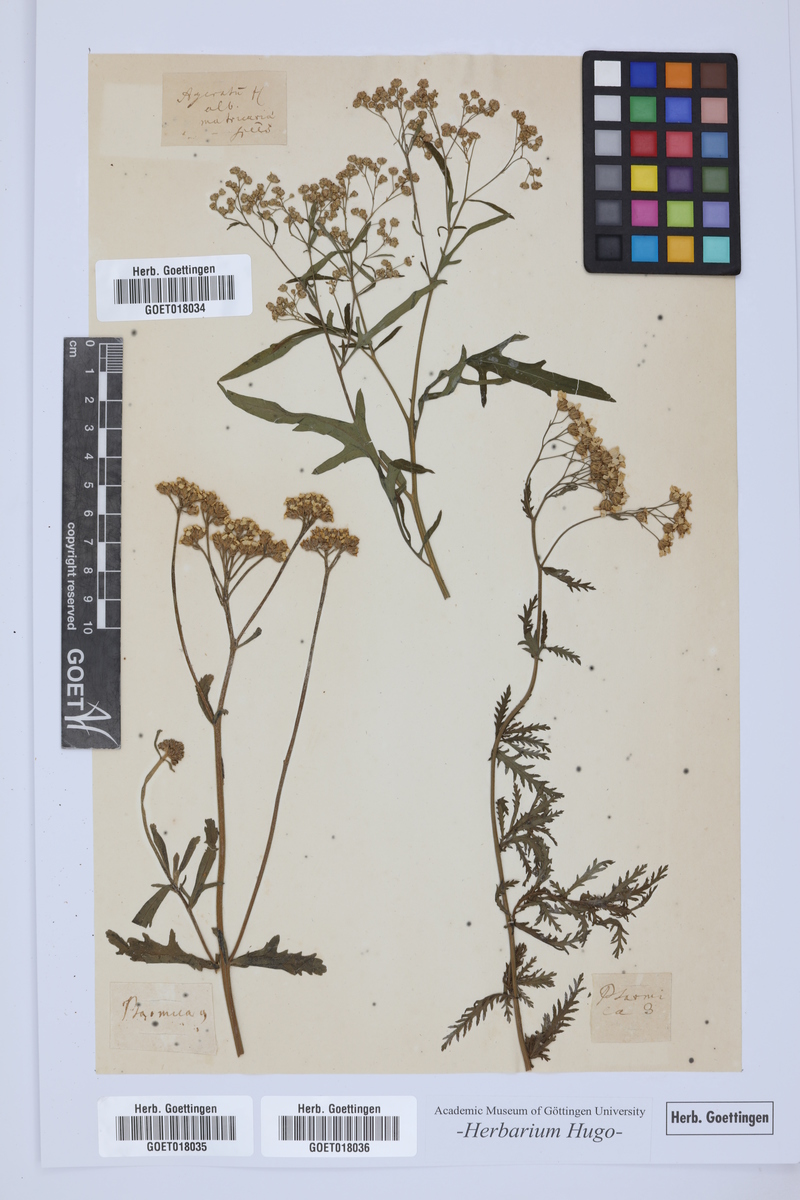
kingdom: Plantae
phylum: Tracheophyta
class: Magnoliopsida
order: Asterales
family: Asteraceae
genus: Ageratum
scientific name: Ageratum
